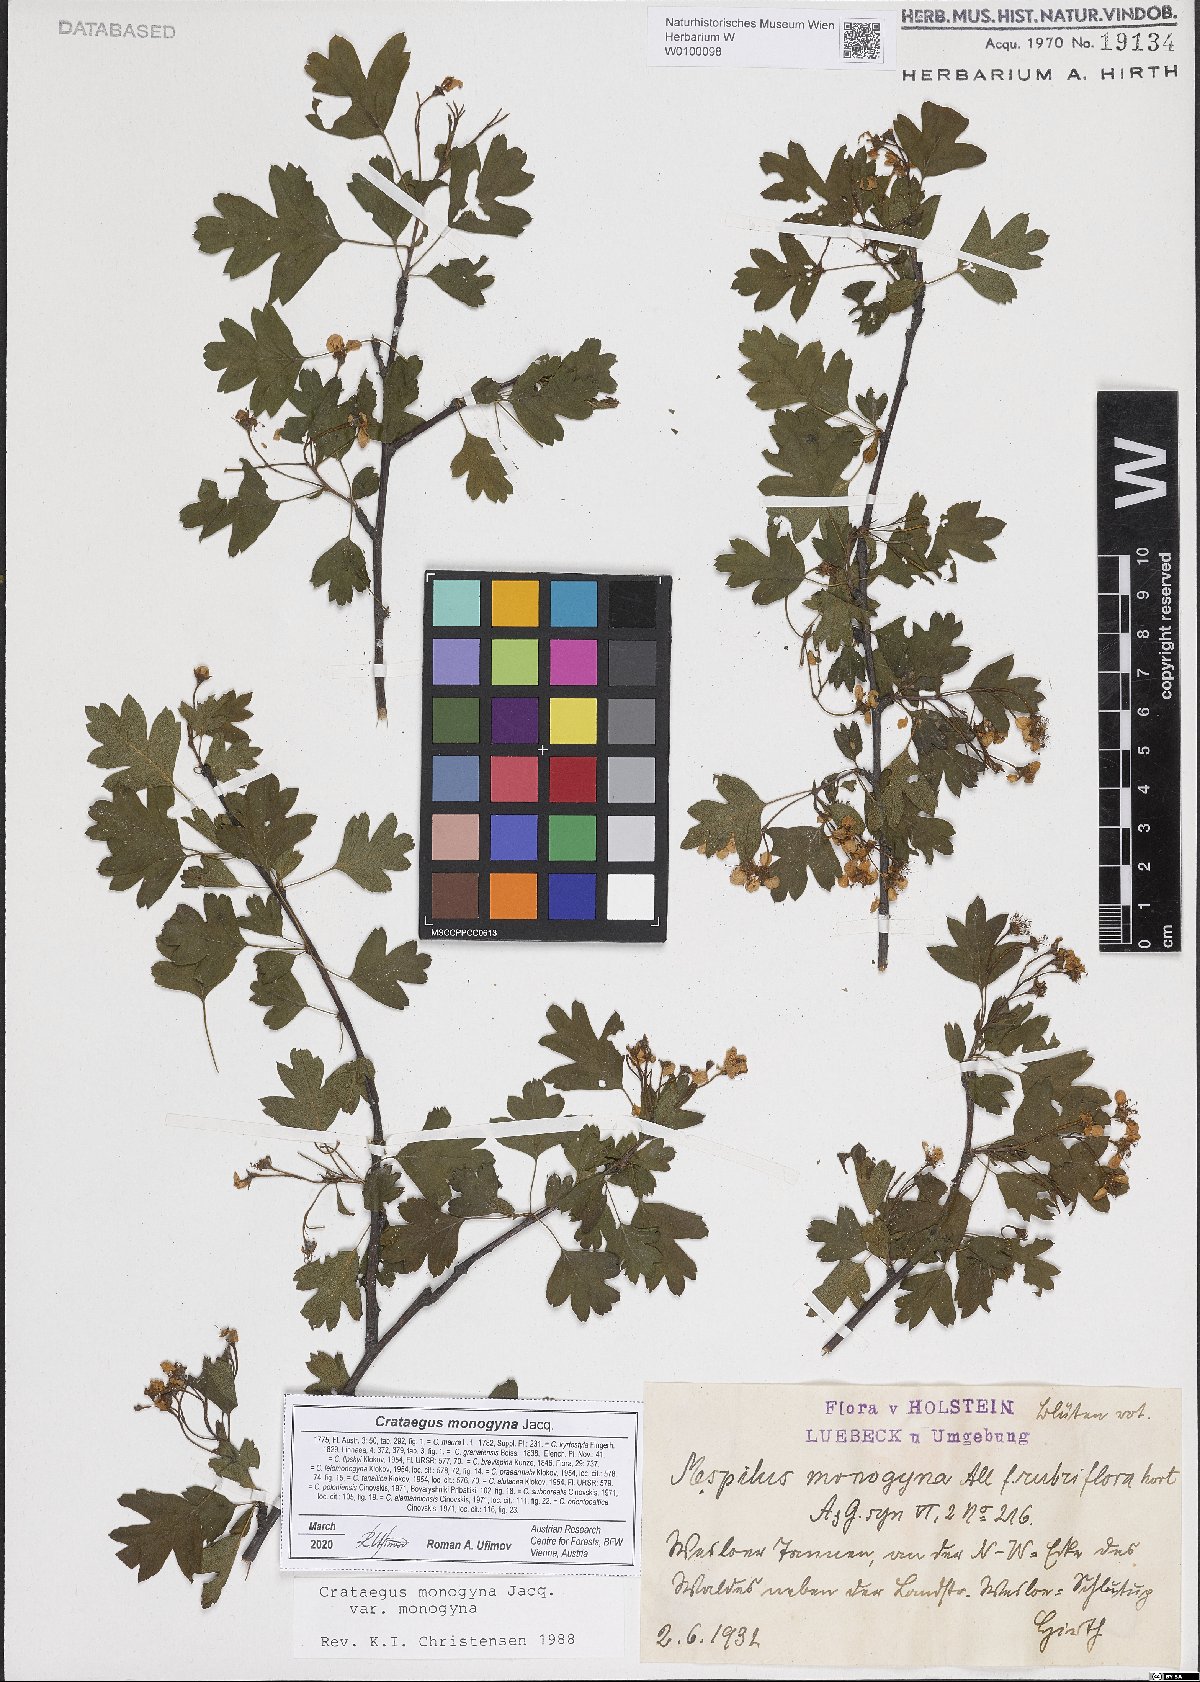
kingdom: Plantae
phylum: Tracheophyta
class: Magnoliopsida
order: Rosales
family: Rosaceae
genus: Crataegus
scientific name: Crataegus monogyna
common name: Hawthorn
